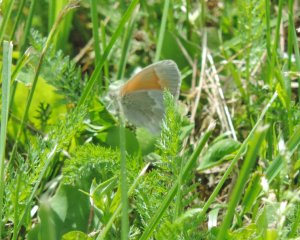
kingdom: Animalia
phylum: Arthropoda
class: Insecta
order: Lepidoptera
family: Nymphalidae
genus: Coenonympha
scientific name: Coenonympha tullia
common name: Large Heath
